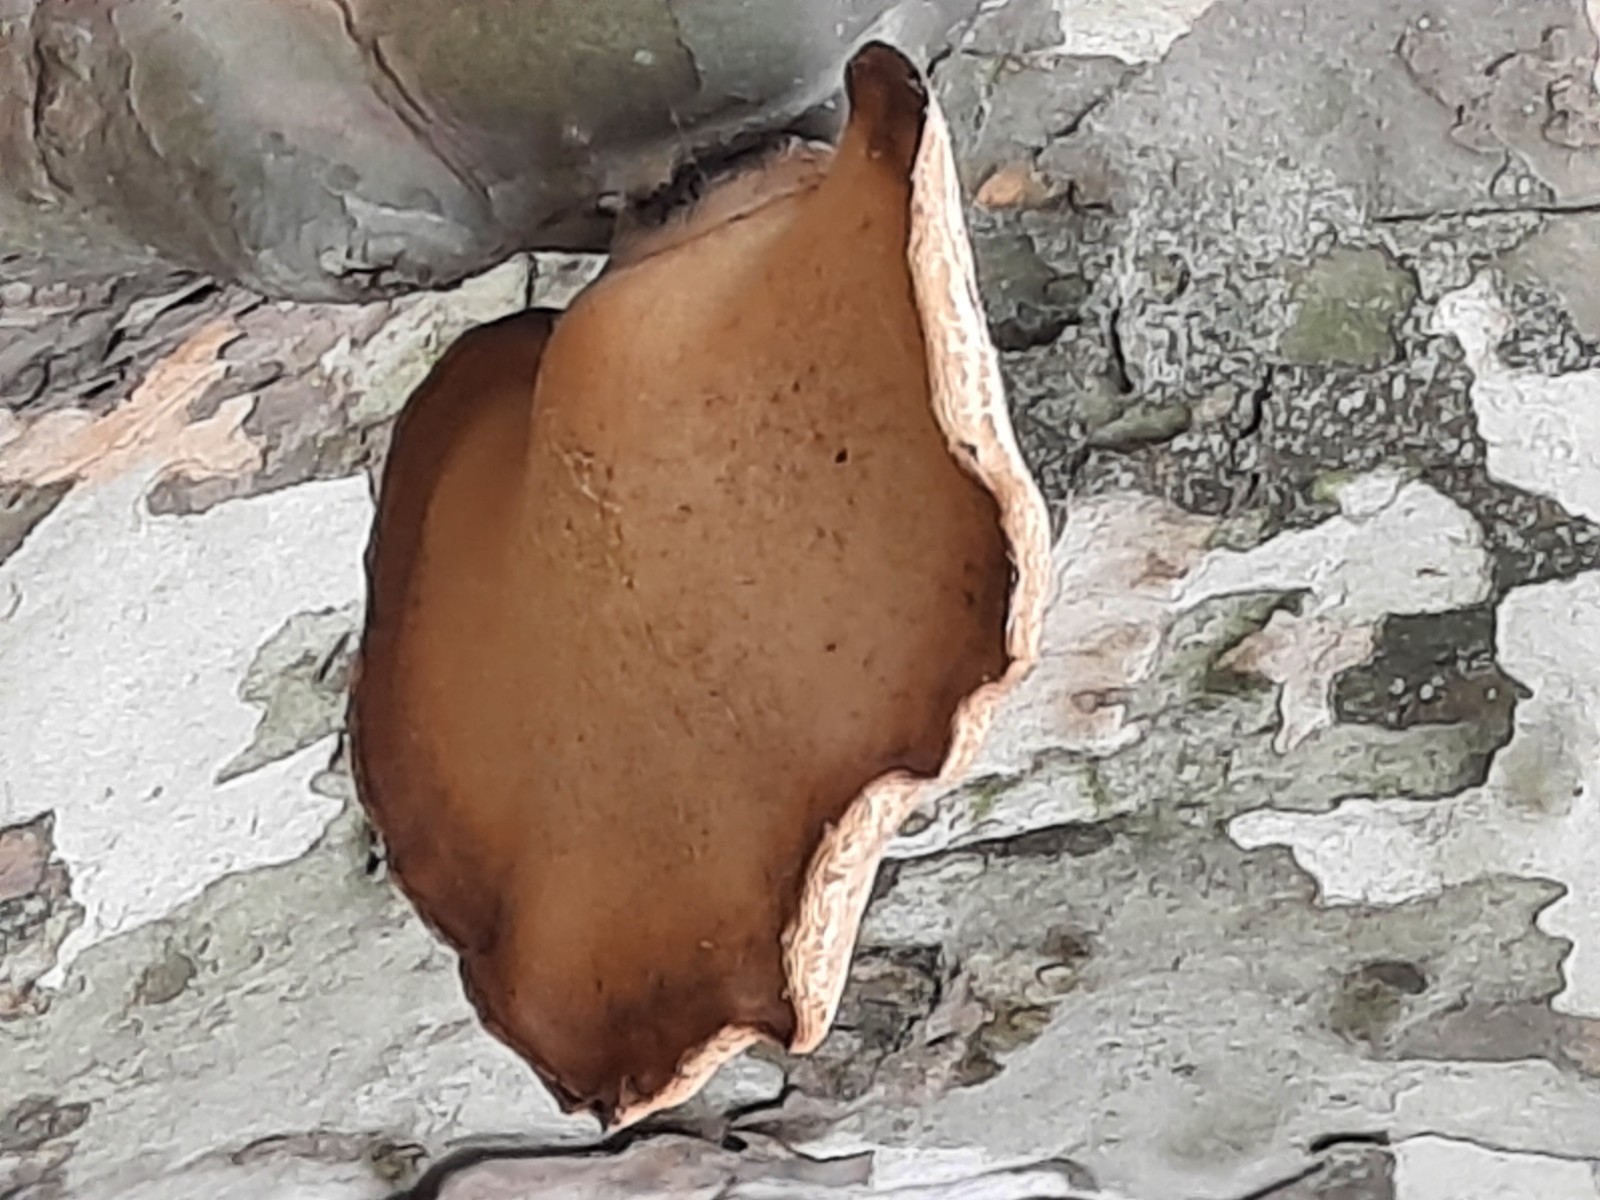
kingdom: Fungi
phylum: Basidiomycota
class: Agaricomycetes
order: Polyporales
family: Polyporaceae
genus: Cerioporus
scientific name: Cerioporus squamosus
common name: skællet stilkporesvamp
